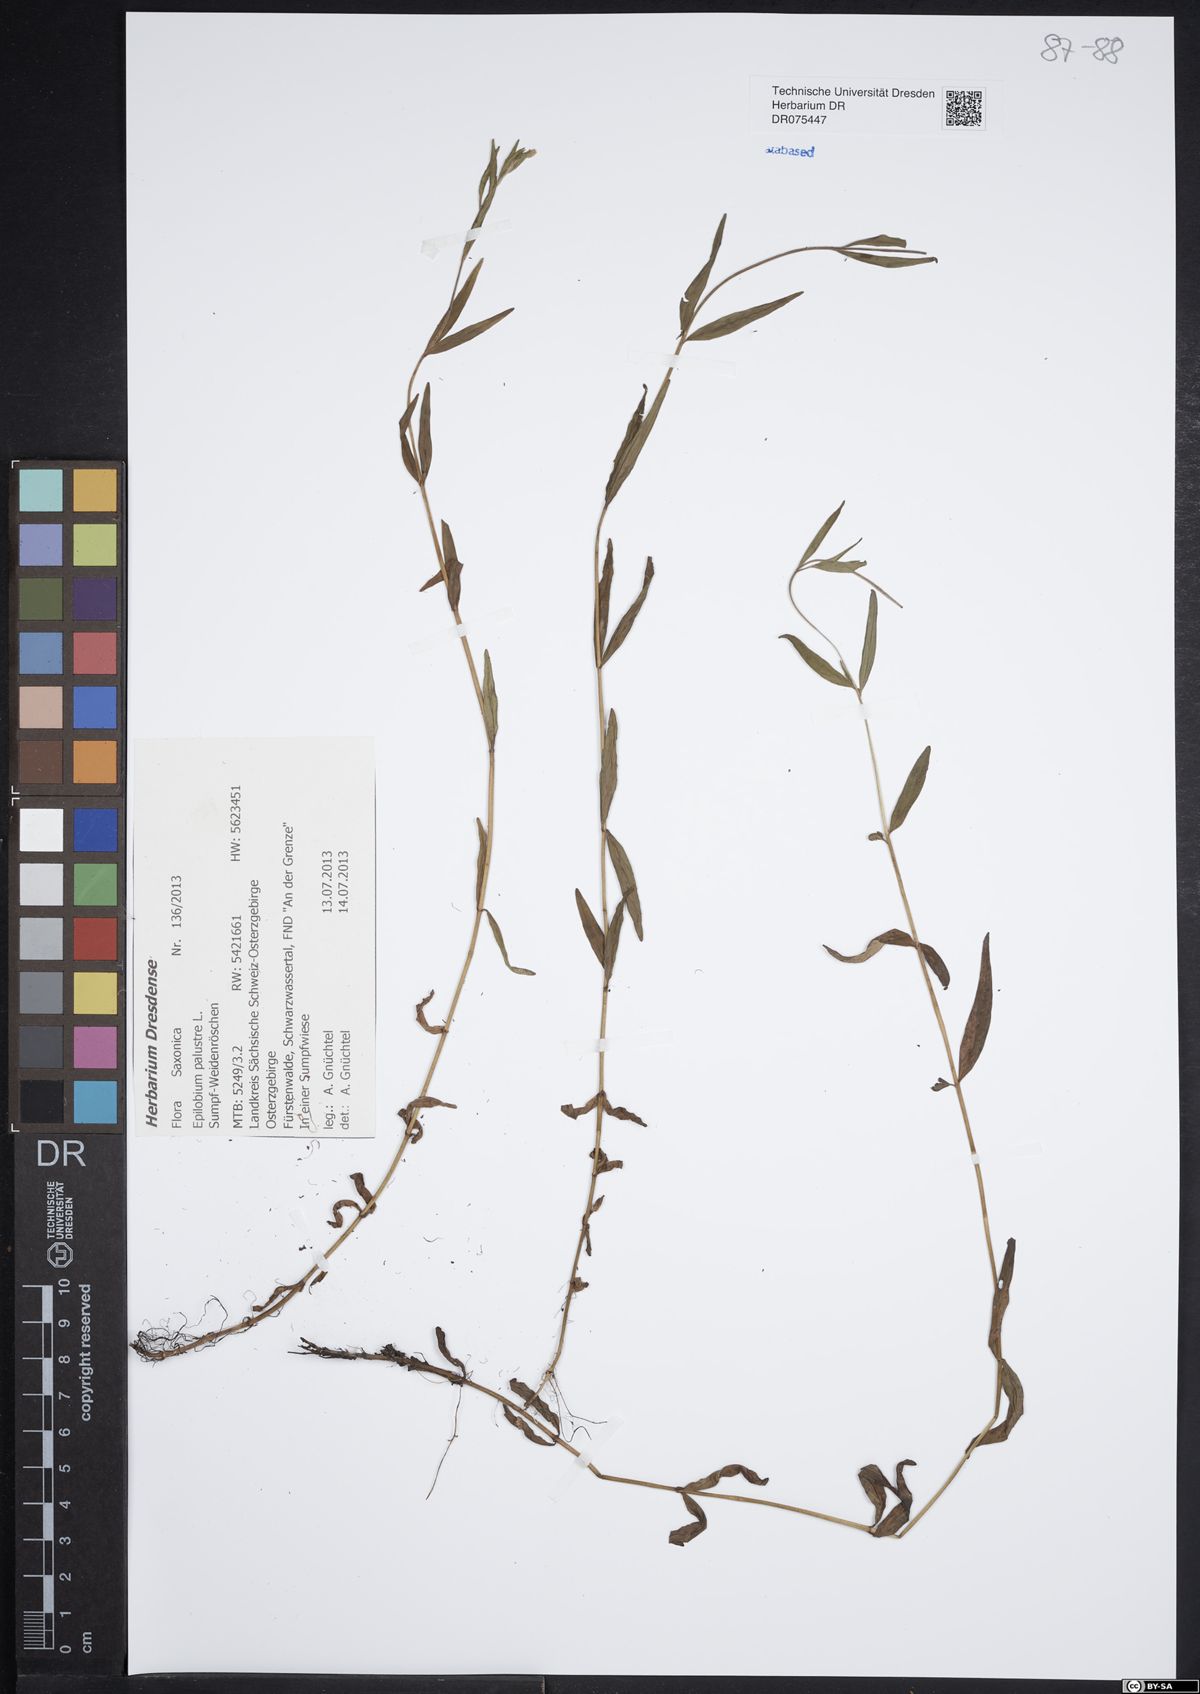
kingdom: Plantae
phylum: Tracheophyta
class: Magnoliopsida
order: Myrtales
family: Onagraceae
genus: Epilobium
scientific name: Epilobium palustre
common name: Marsh willowherb
